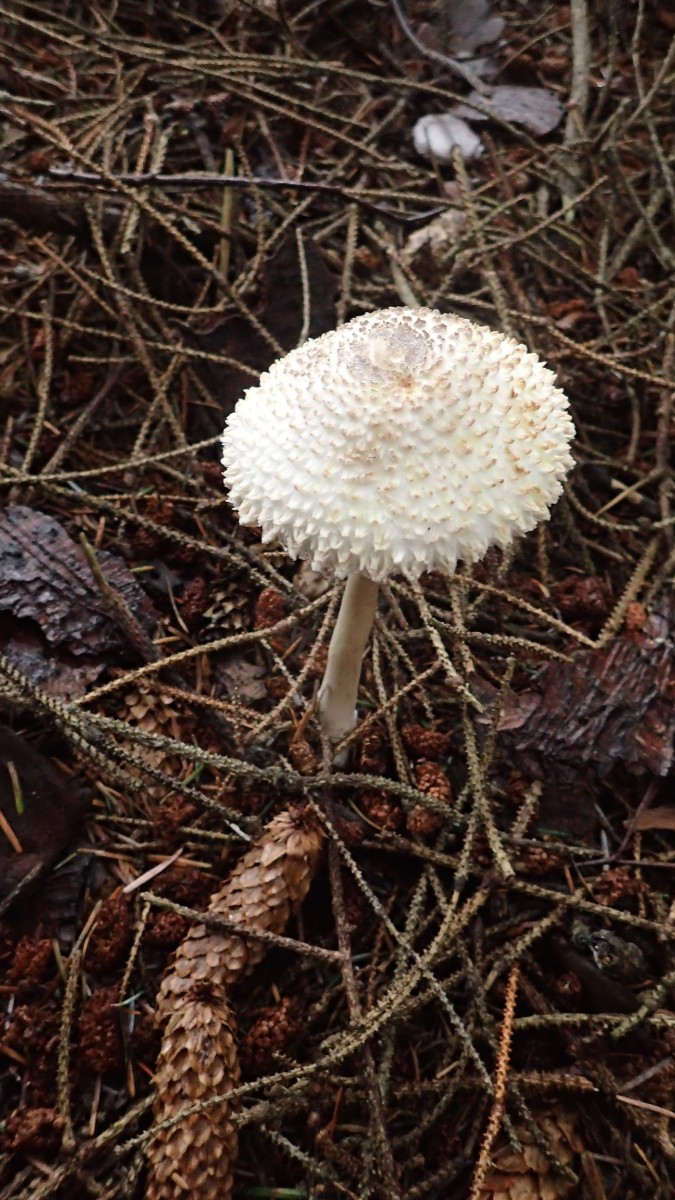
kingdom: Fungi
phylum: Basidiomycota
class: Agaricomycetes
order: Agaricales
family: Agaricaceae
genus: Leucoagaricus
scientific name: Leucoagaricus nympharum
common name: gran-silkehat
